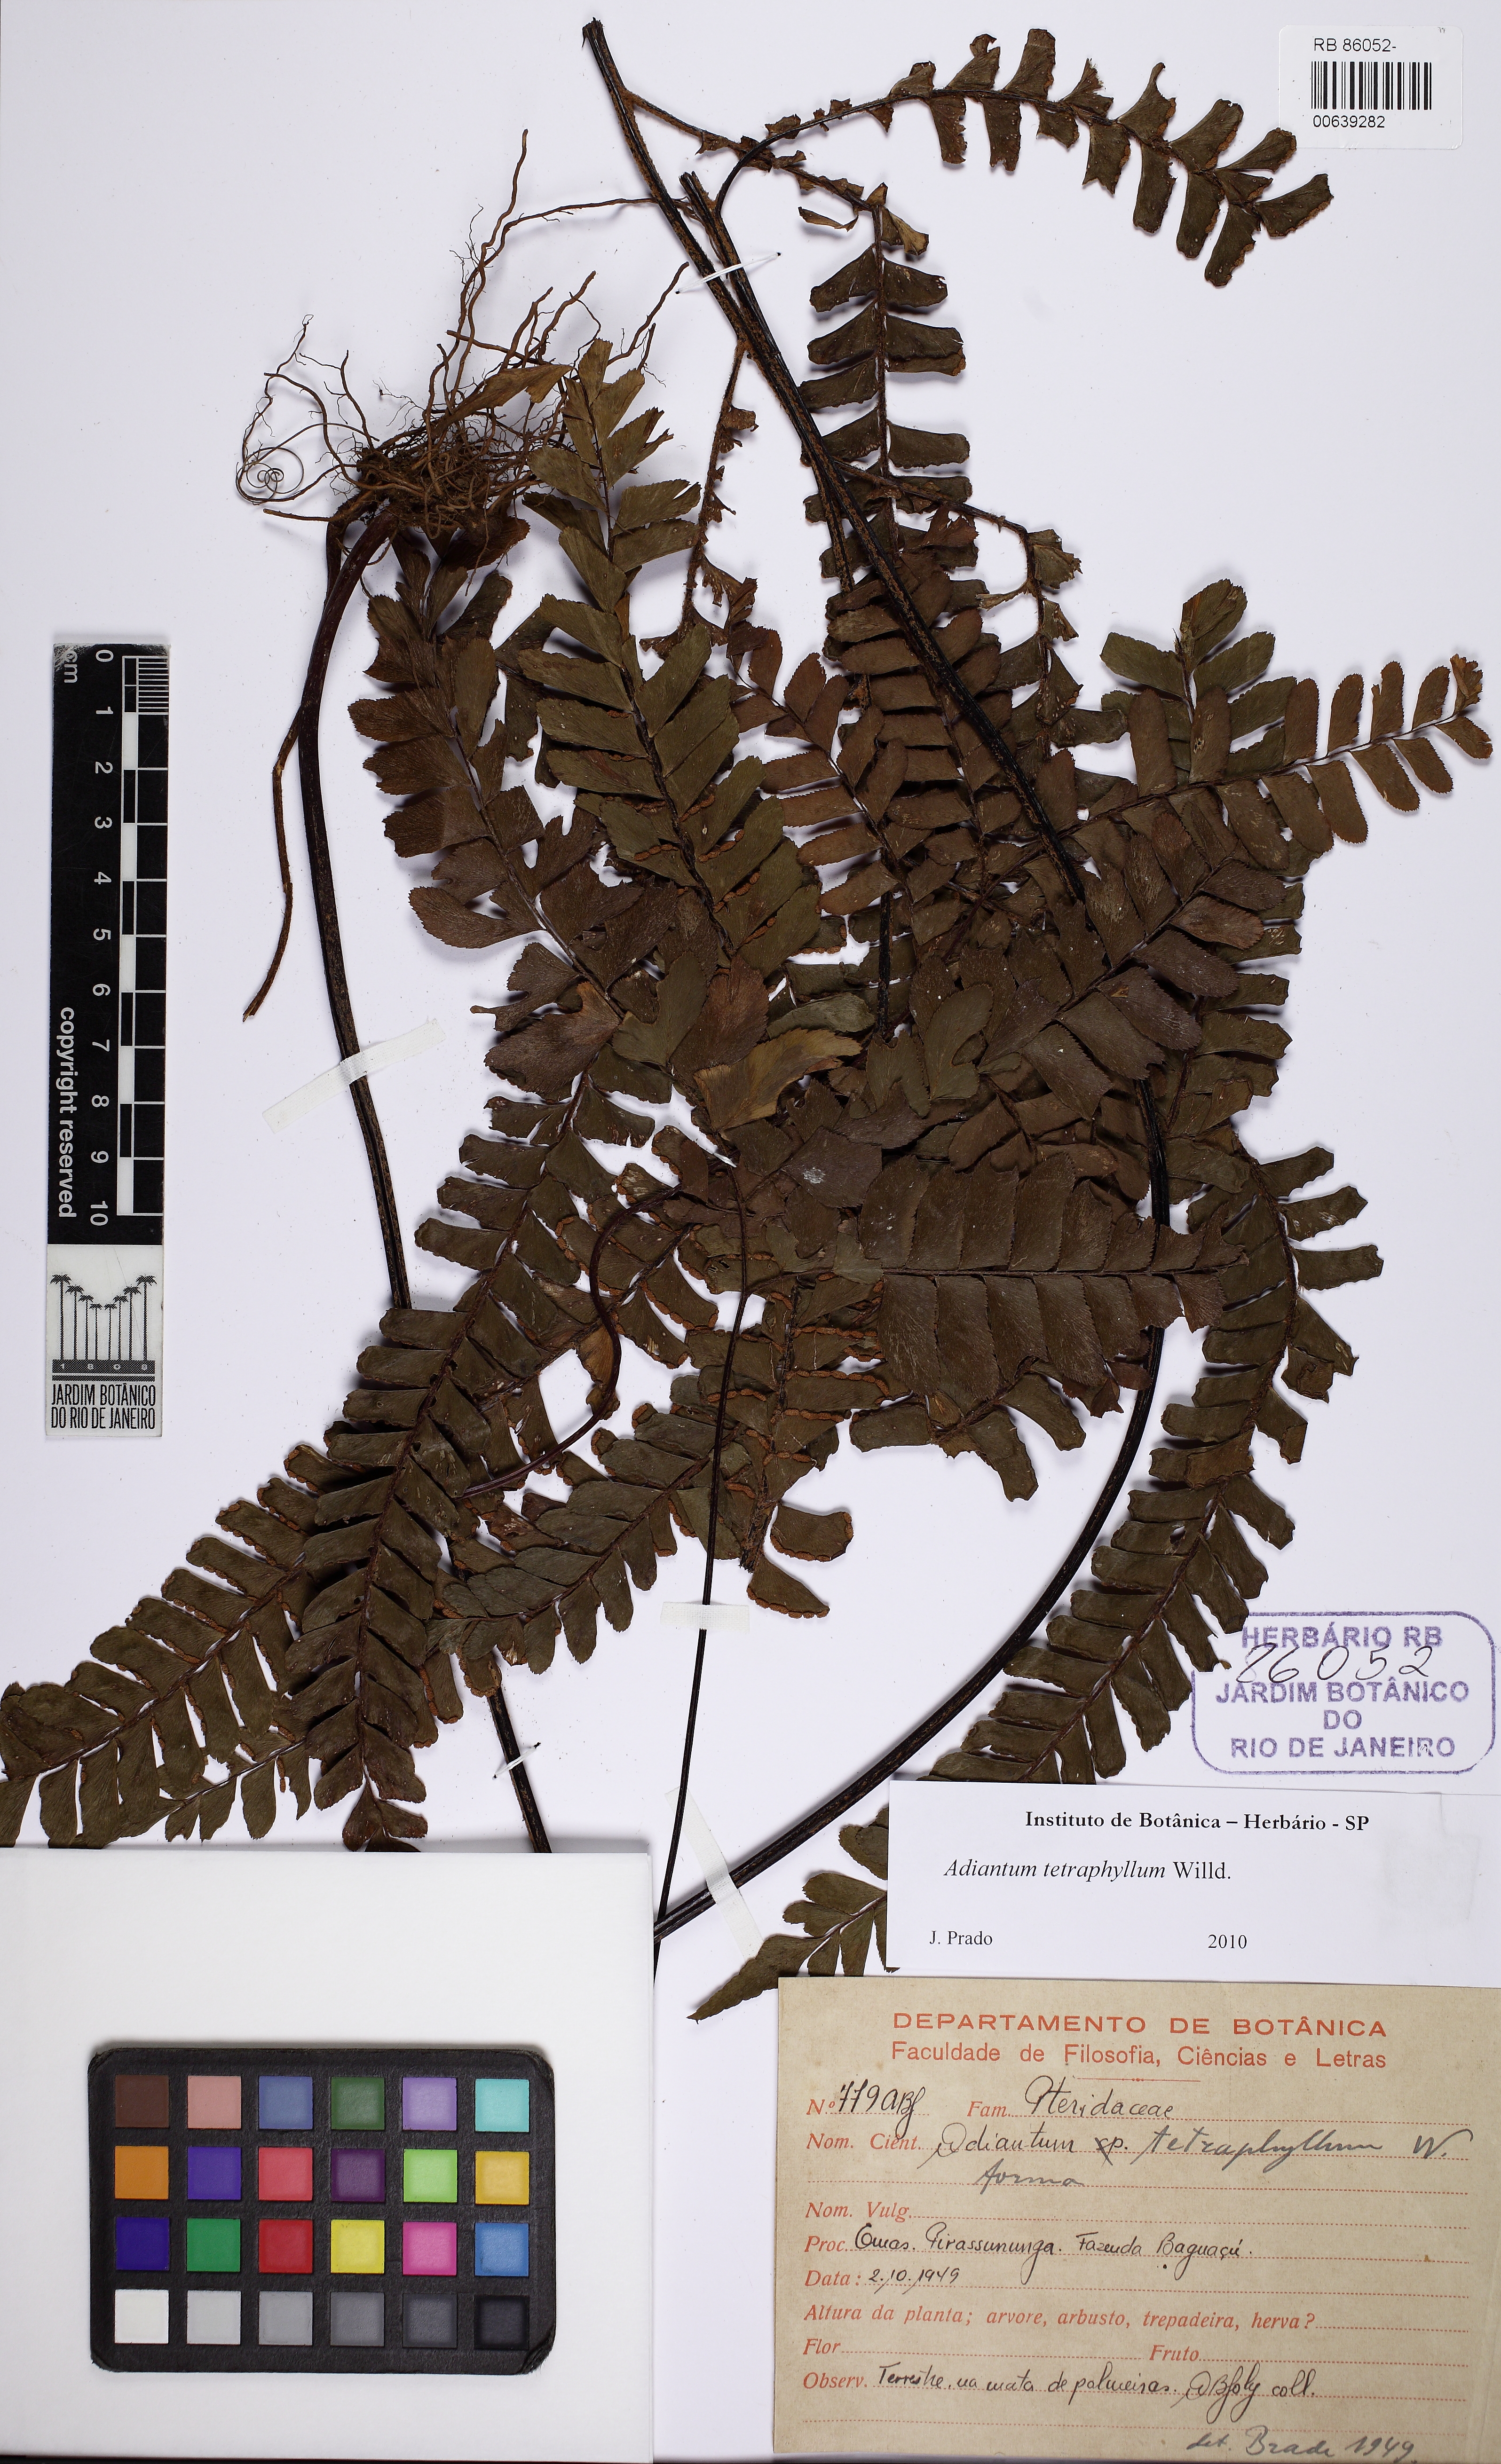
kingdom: Plantae
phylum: Tracheophyta
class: Polypodiopsida
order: Polypodiales
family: Pteridaceae
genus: Adiantum
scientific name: Adiantum tetraphyllum
